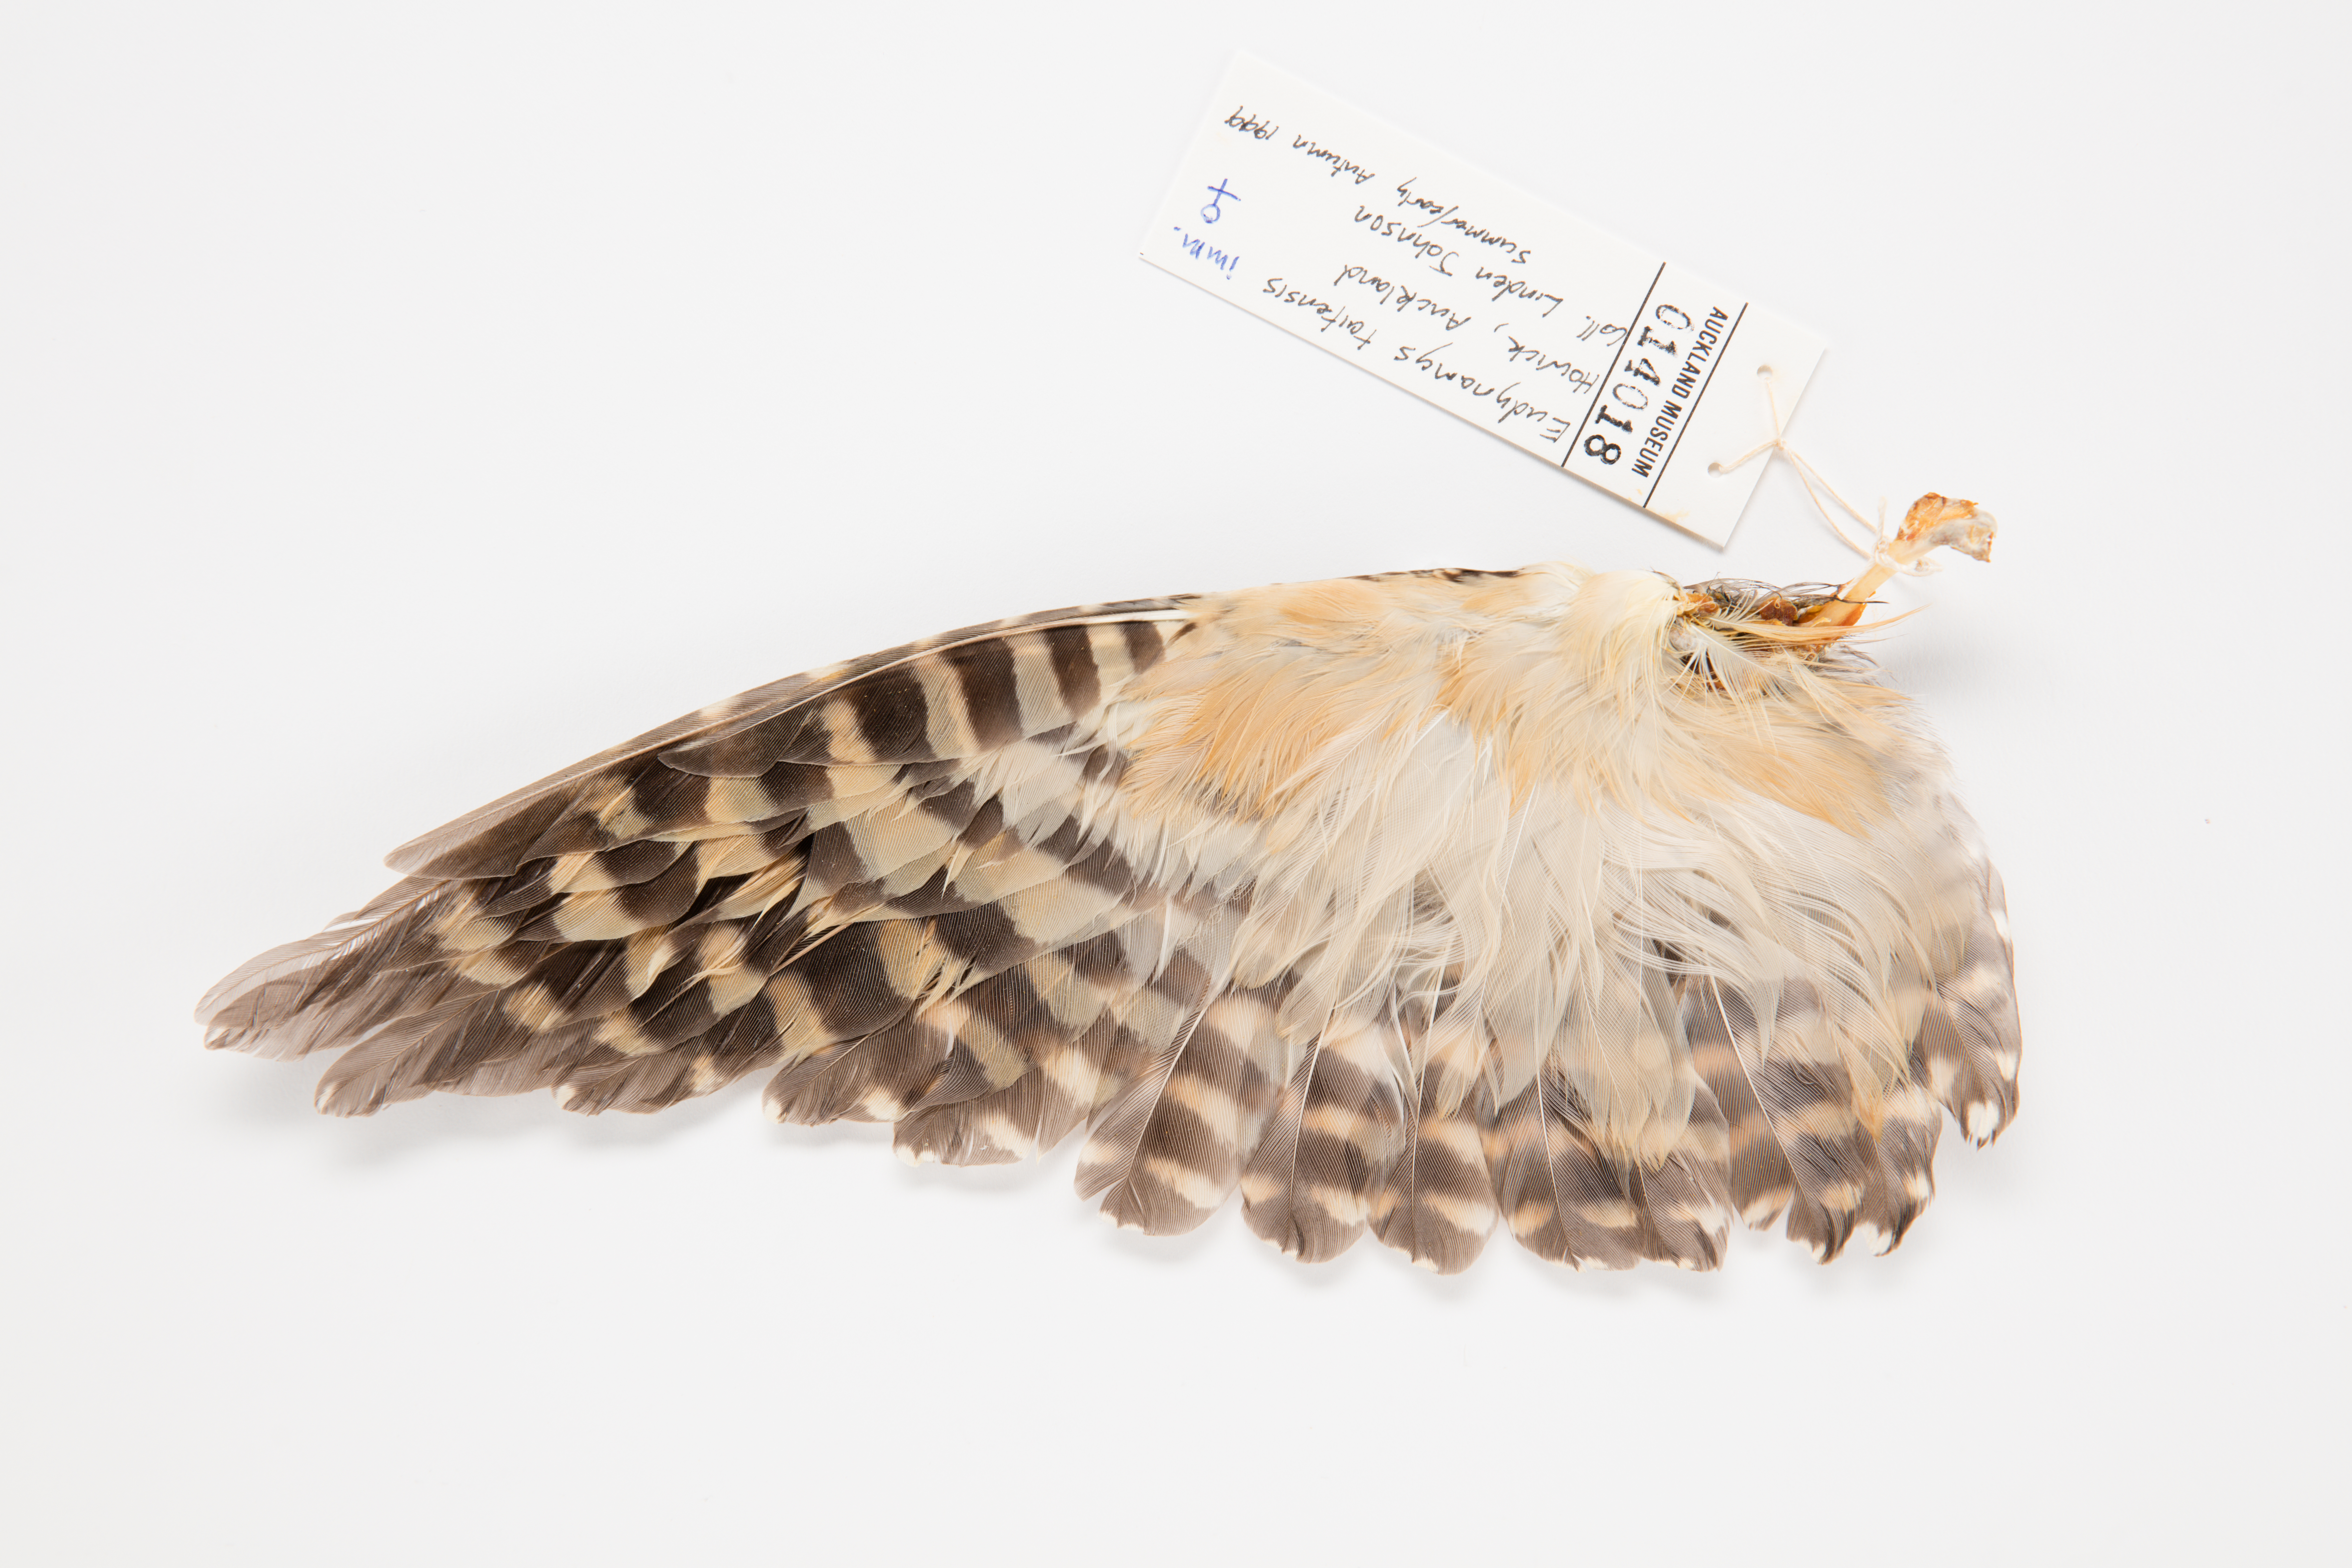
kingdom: Animalia
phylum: Chordata
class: Aves
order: Cuculiformes
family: Cuculidae
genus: Urodynamis
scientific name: Urodynamis taitensis
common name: Long-tailed koel
